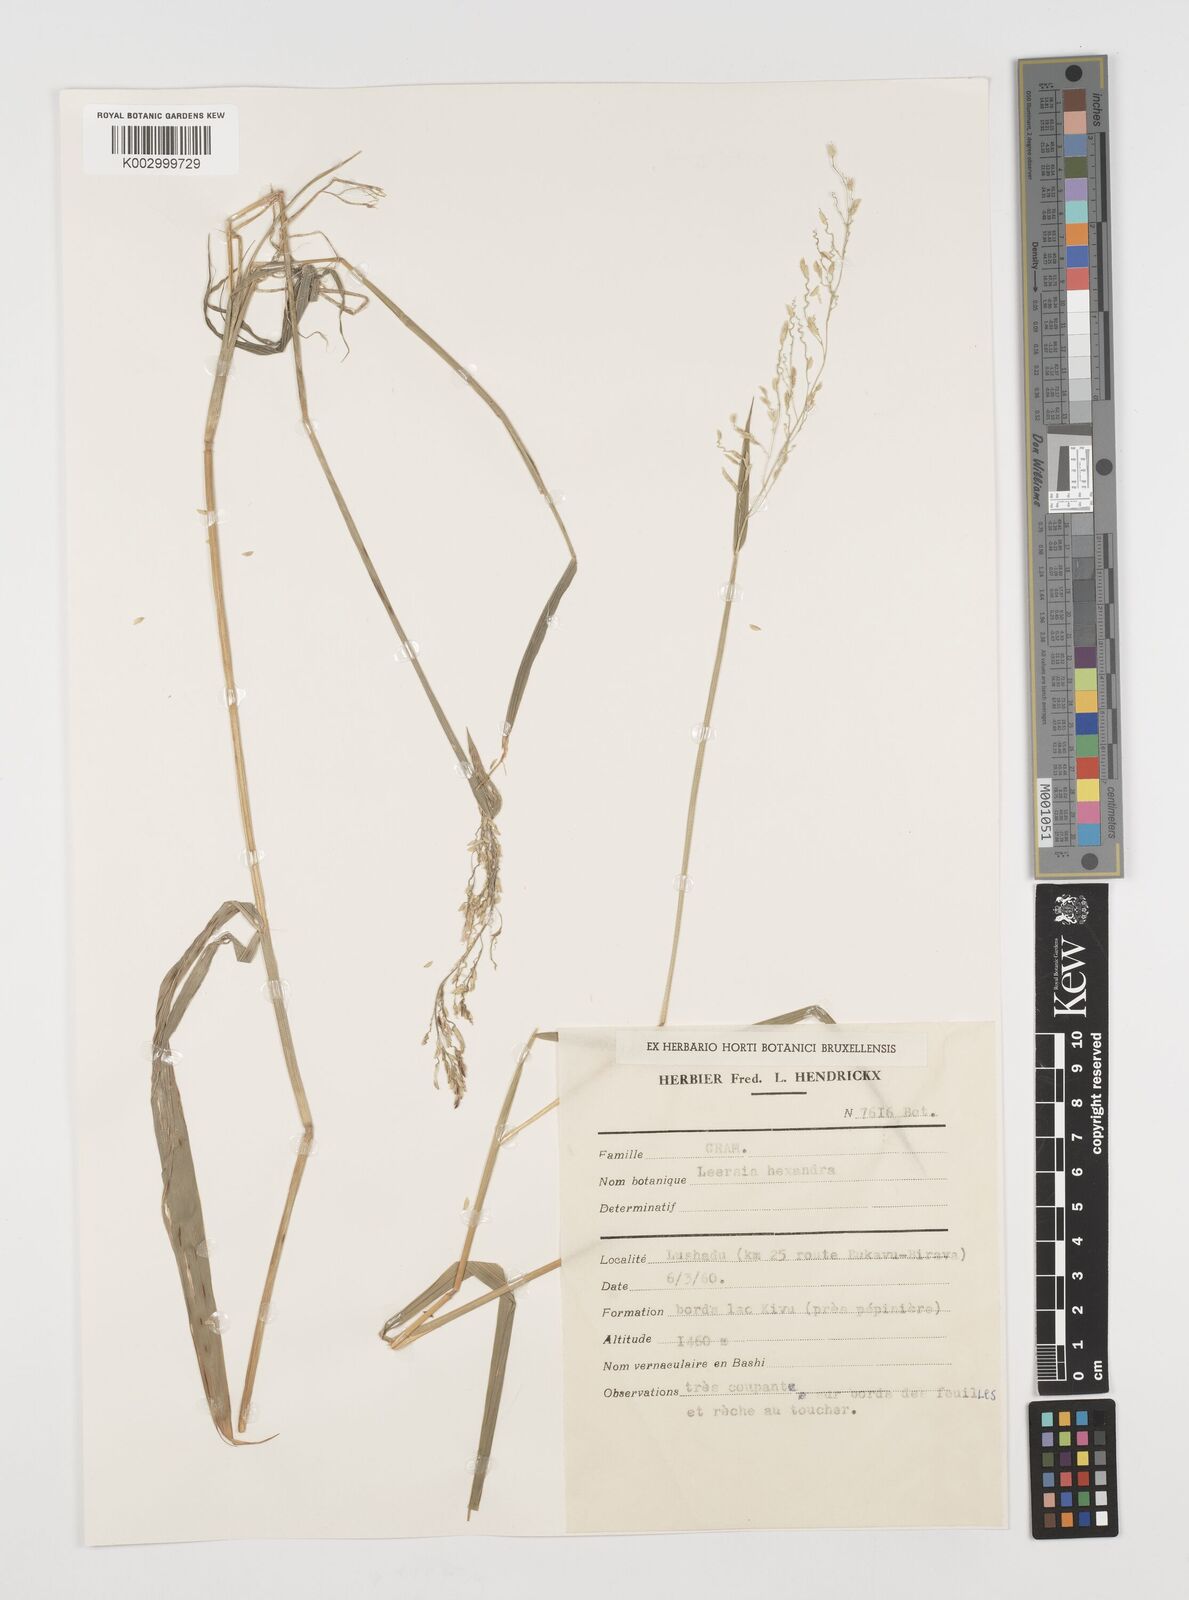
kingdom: Plantae
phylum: Tracheophyta
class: Liliopsida
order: Poales
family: Poaceae
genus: Leersia
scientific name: Leersia hexandra
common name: Southern cut grass
